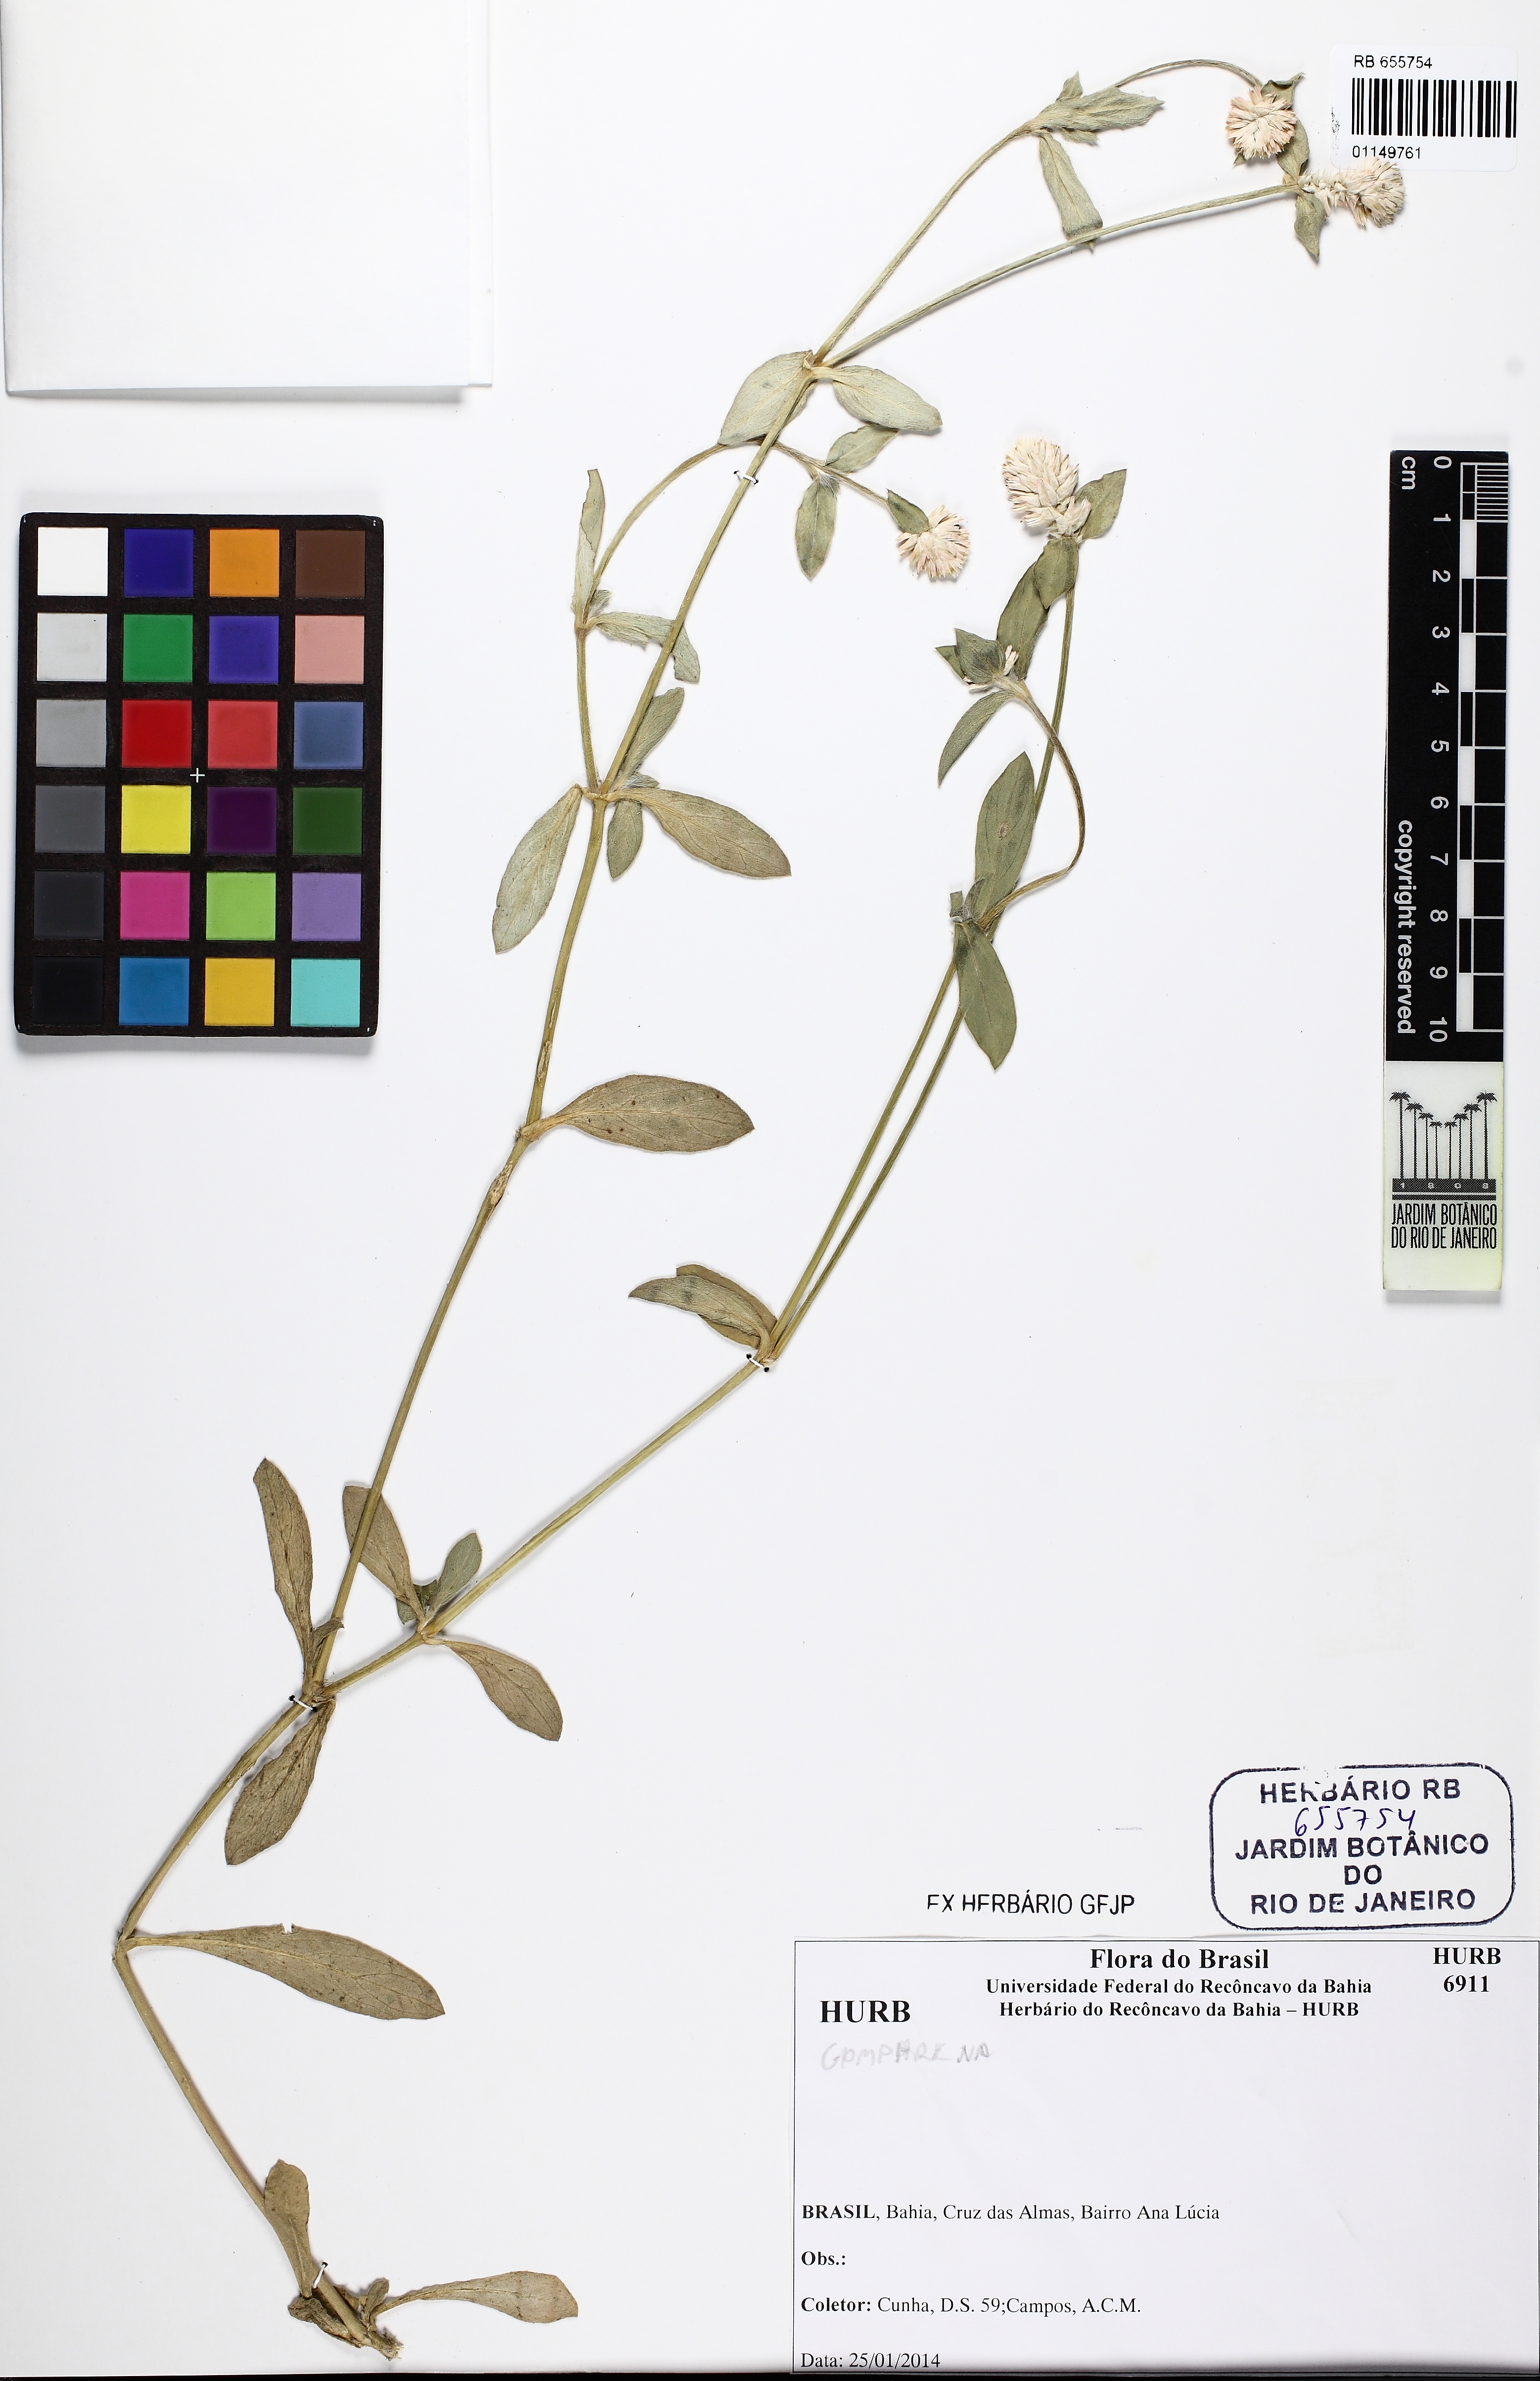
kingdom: Plantae
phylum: Tracheophyta
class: Magnoliopsida
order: Caryophyllales
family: Amaranthaceae
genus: Gomphrena
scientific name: Gomphrena
